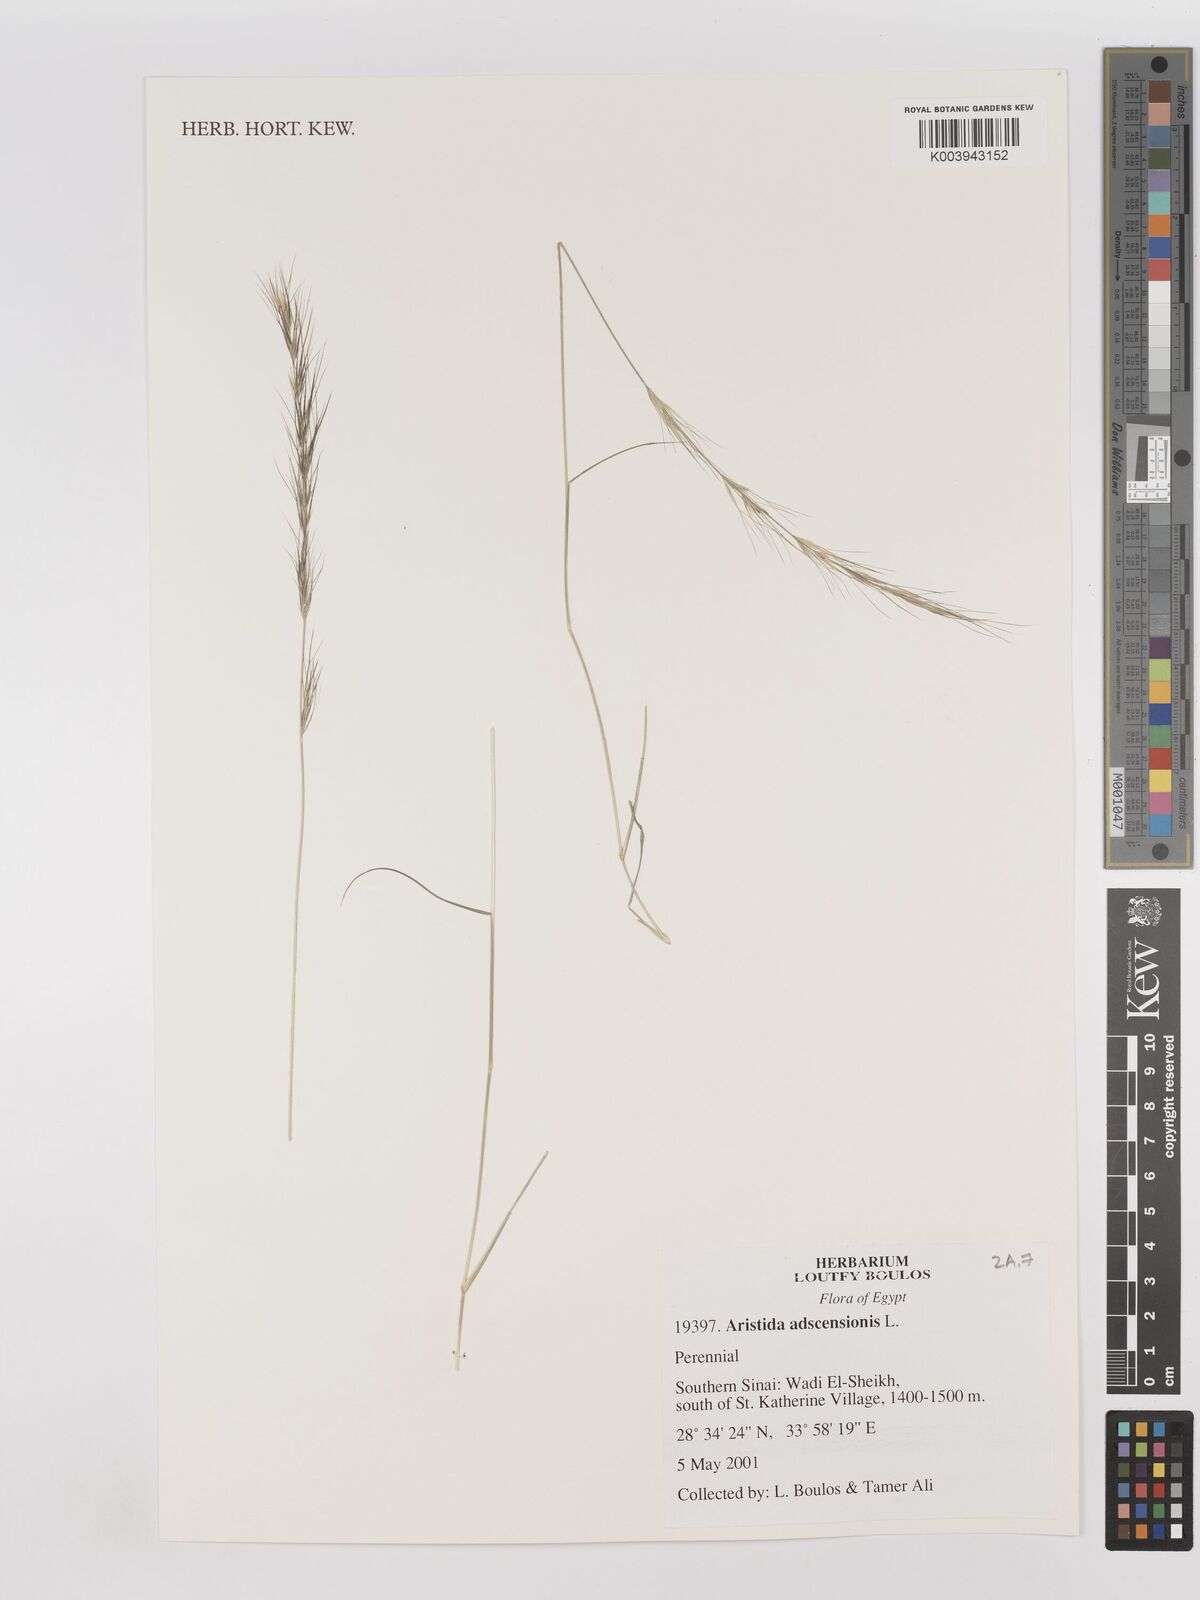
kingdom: Plantae
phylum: Tracheophyta
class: Liliopsida
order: Poales
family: Poaceae
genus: Aristida
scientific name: Aristida adscensionis
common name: Sixweeks threeawn
